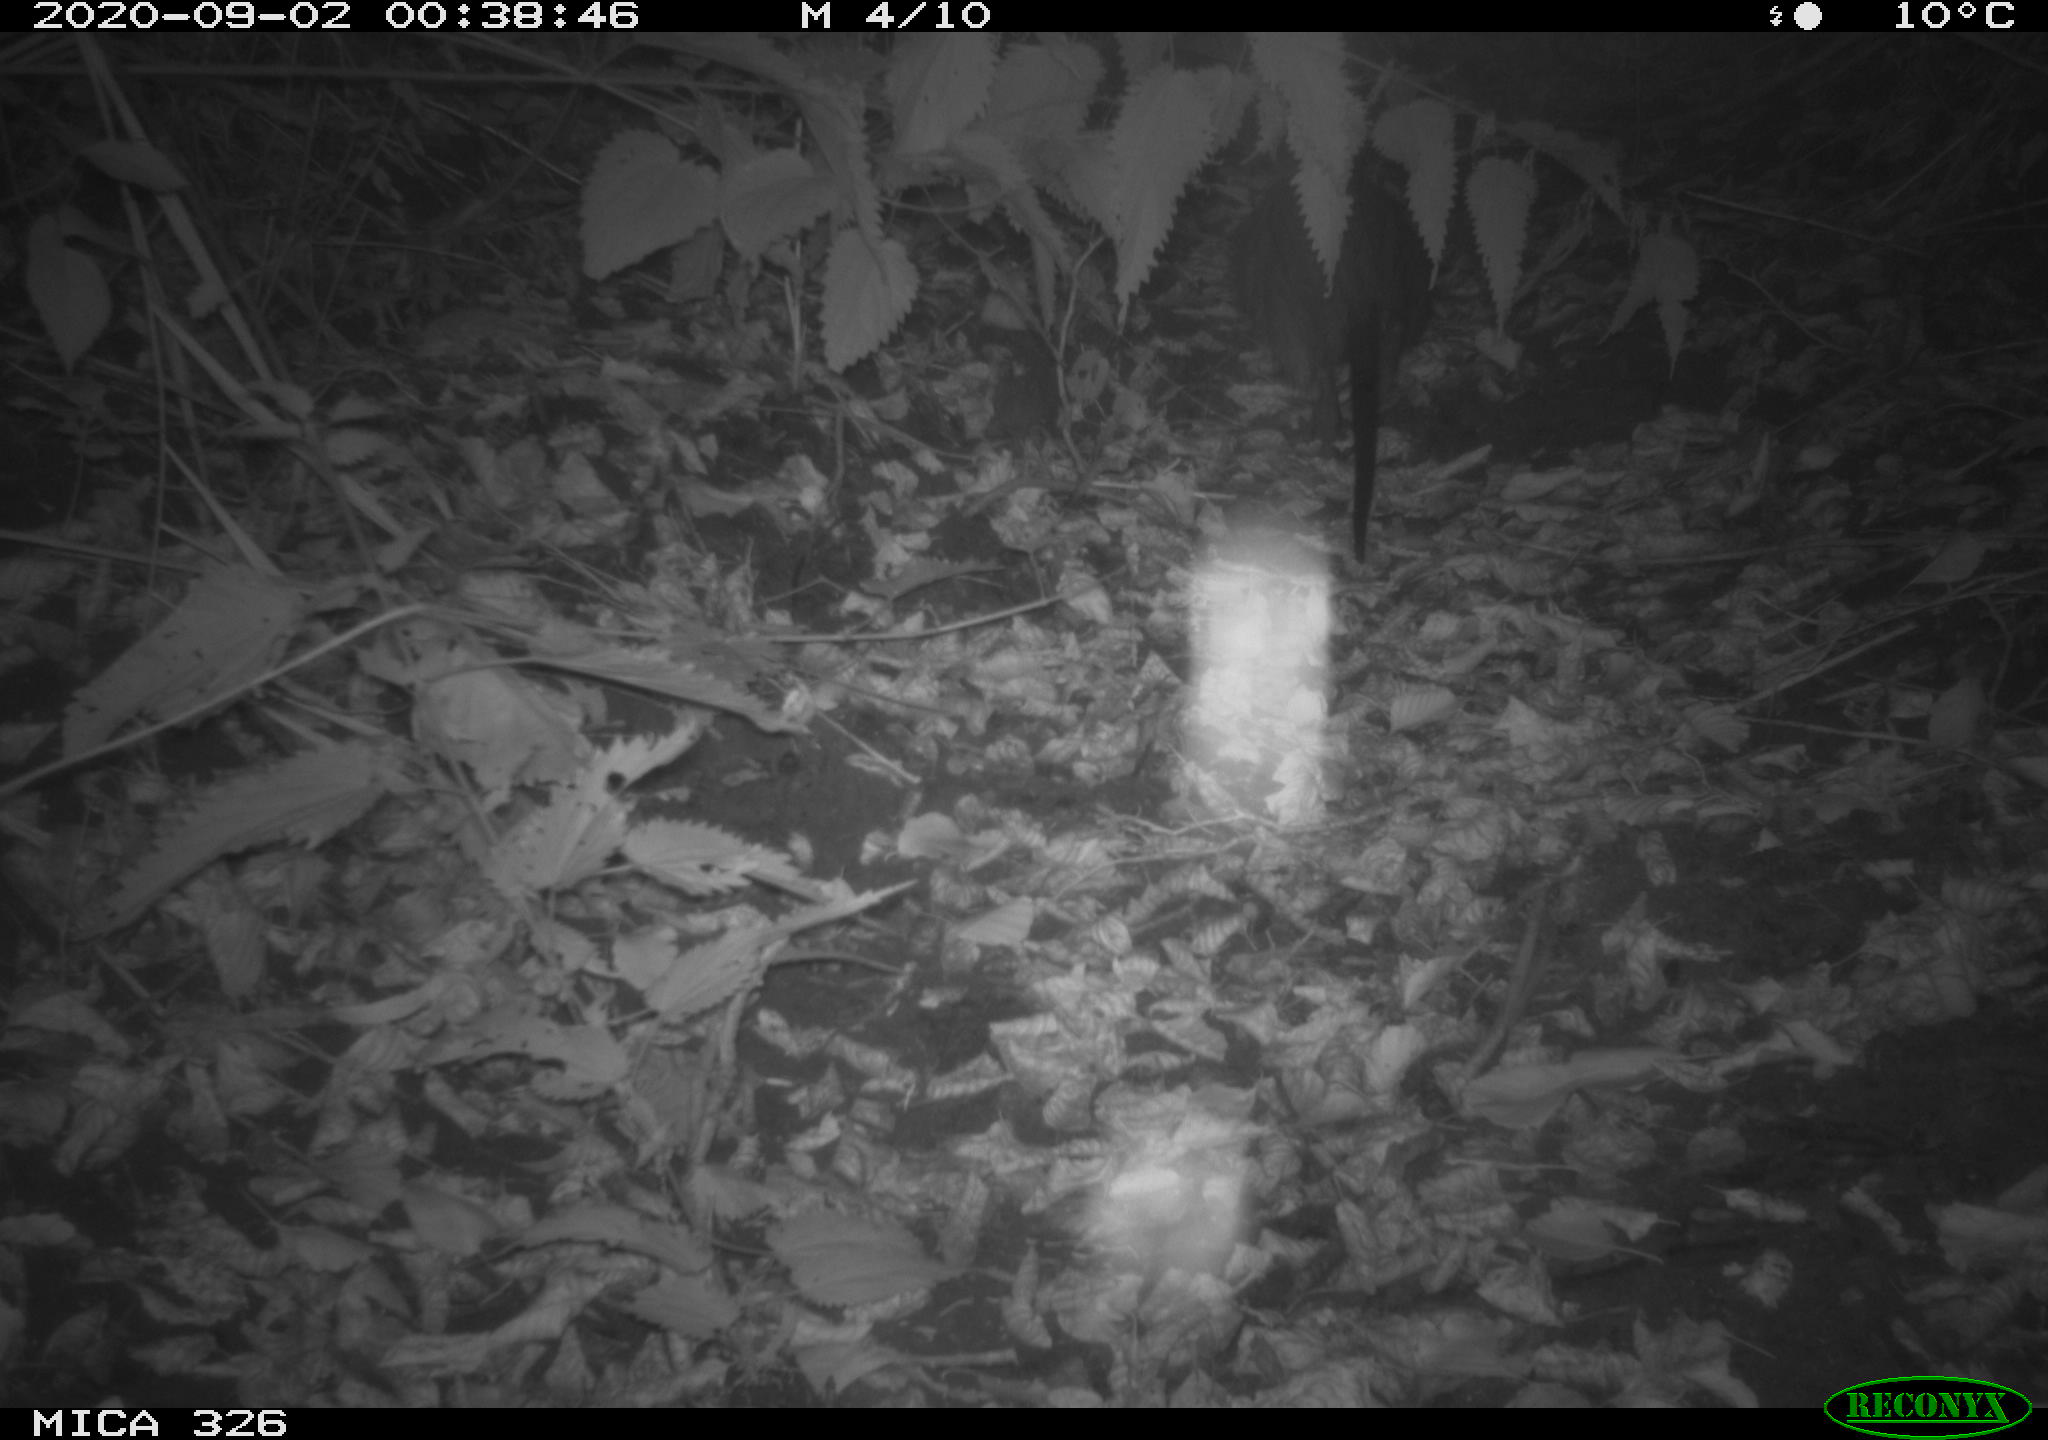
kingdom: Animalia
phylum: Chordata
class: Mammalia
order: Rodentia
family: Myocastoridae
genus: Myocastor
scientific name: Myocastor coypus
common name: Coypu
